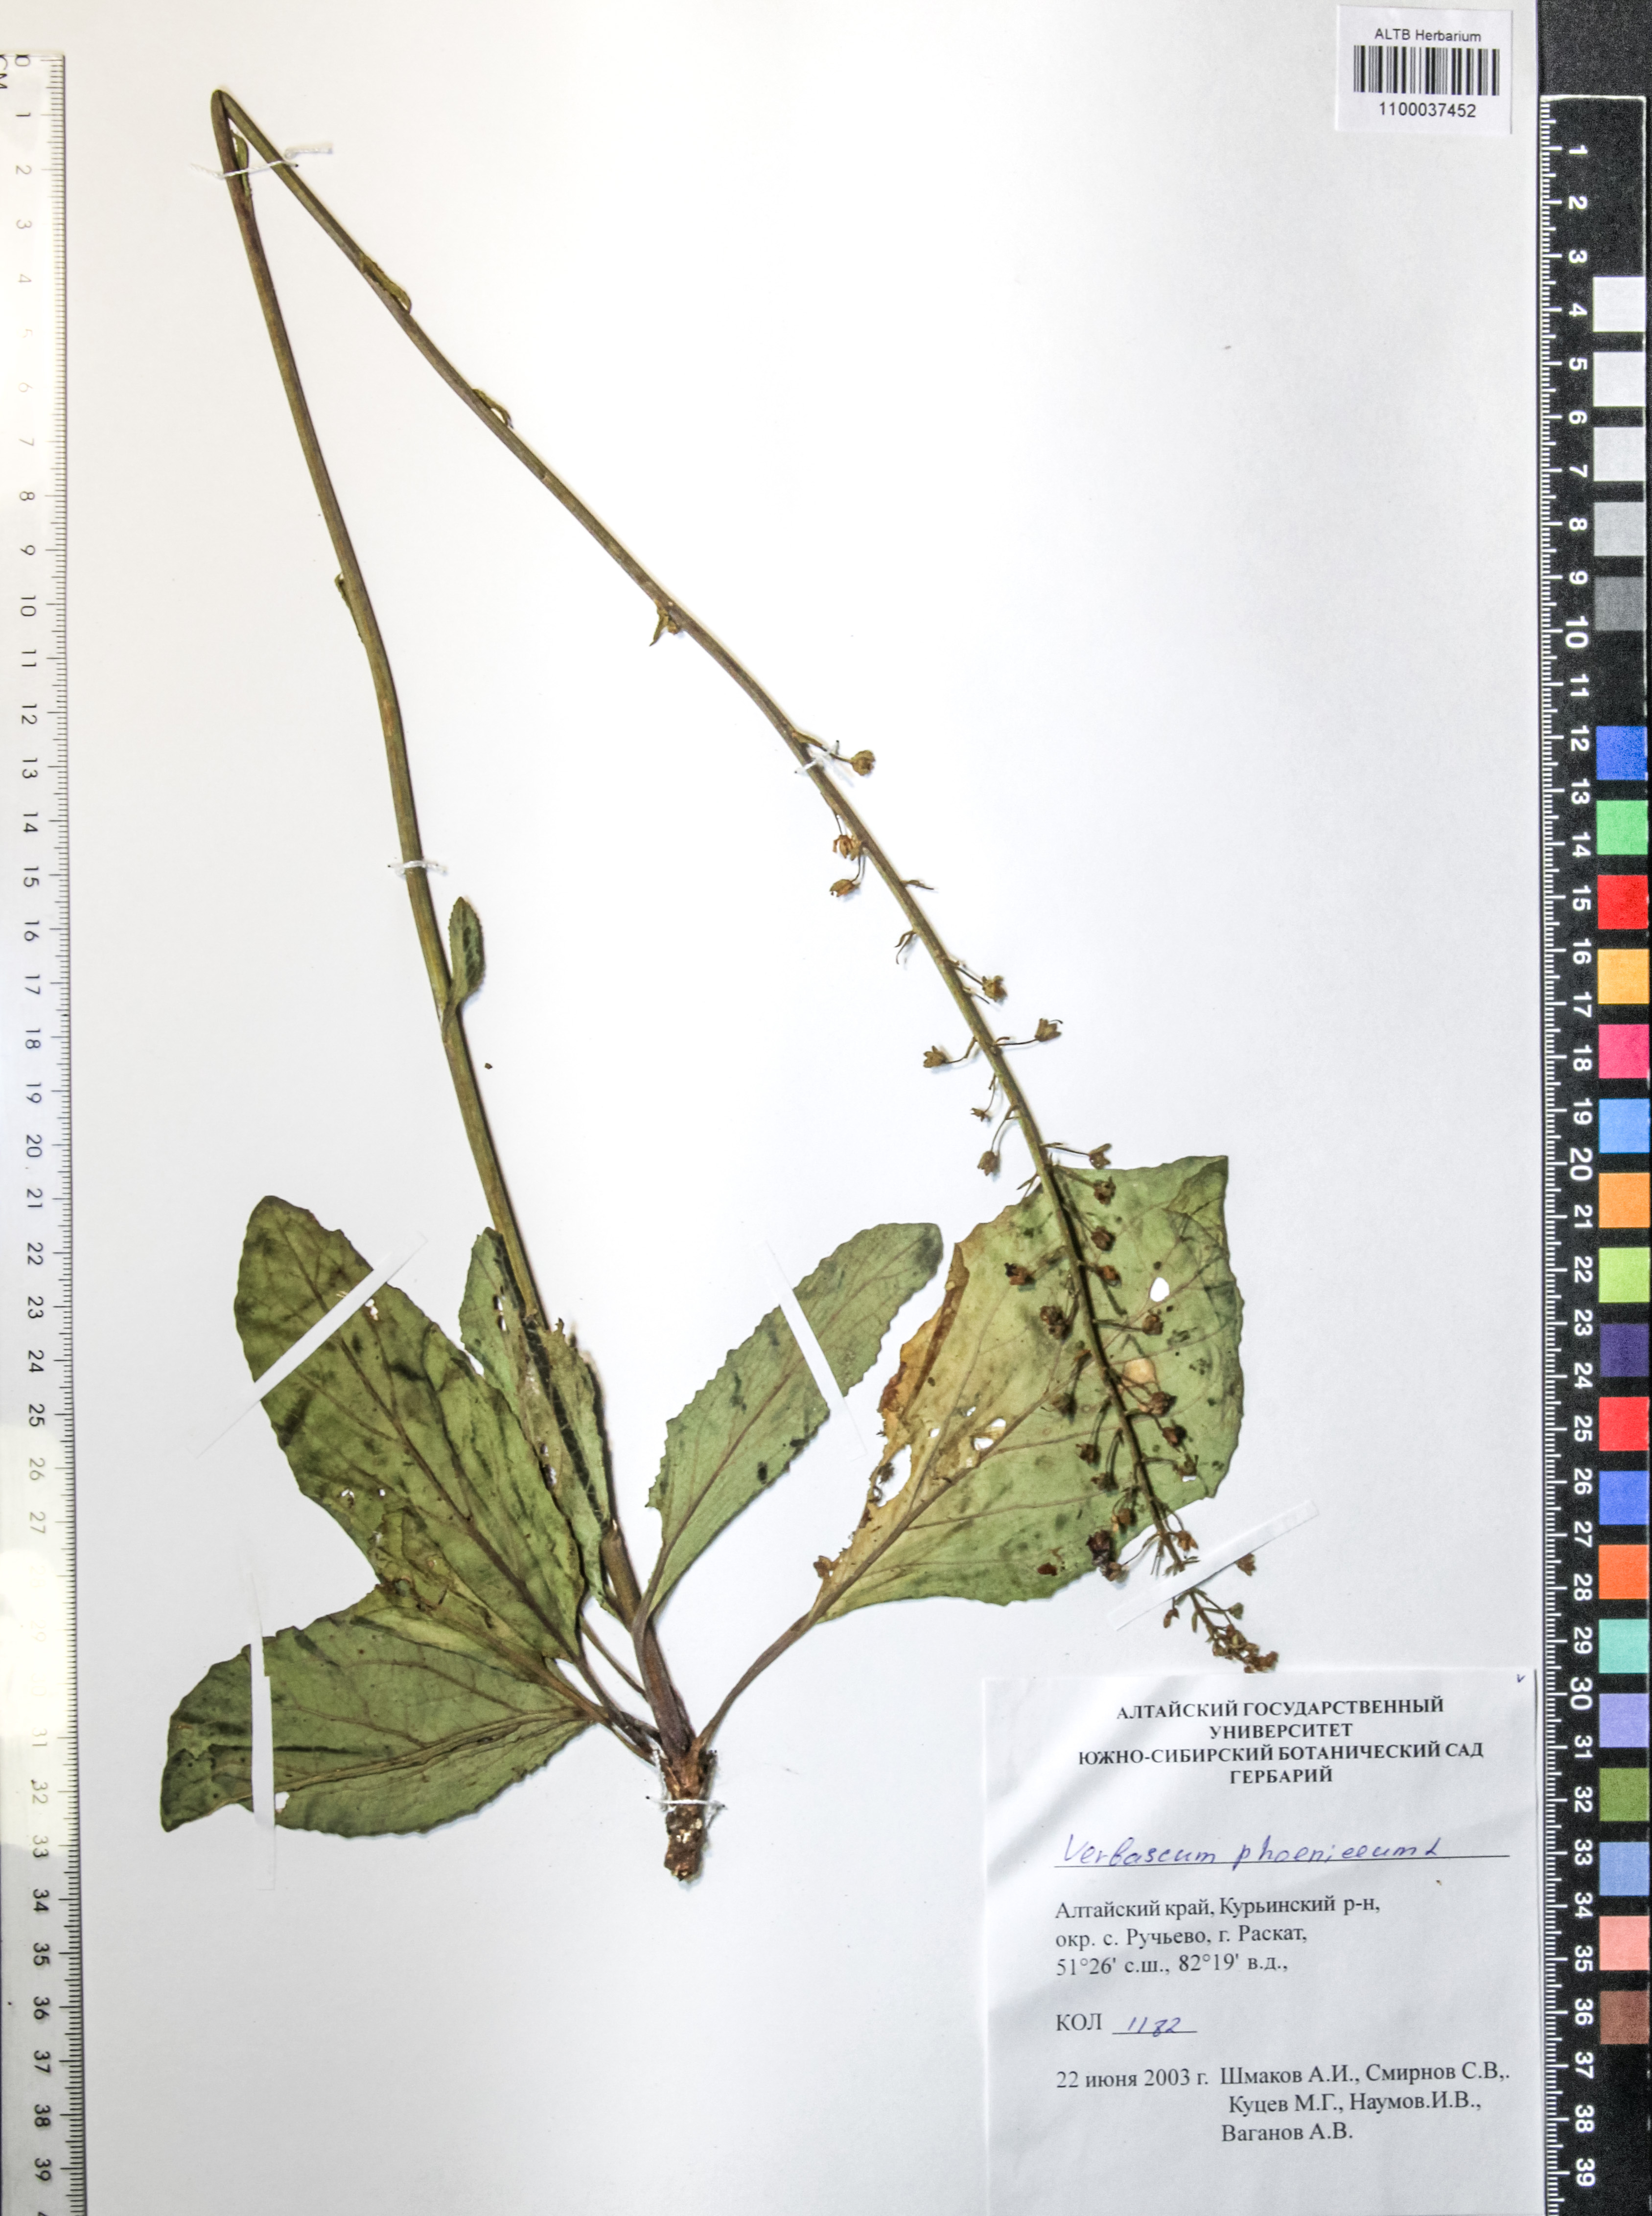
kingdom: Plantae
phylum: Tracheophyta
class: Magnoliopsida
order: Lamiales
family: Scrophulariaceae
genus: Verbascum
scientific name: Verbascum phoeniceum
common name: Purple mullein
